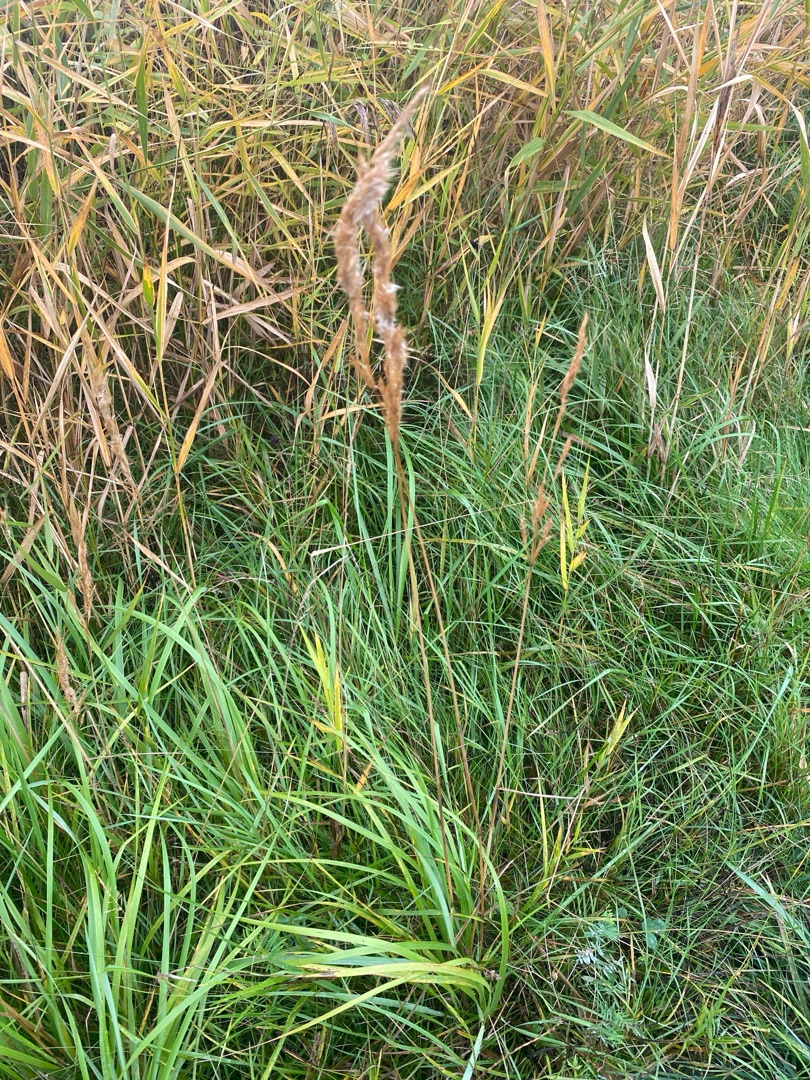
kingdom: Plantae
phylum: Tracheophyta
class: Liliopsida
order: Poales
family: Poaceae
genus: Calamagrostis
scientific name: Calamagrostis epigejos
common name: Bjerg-rørhvene
